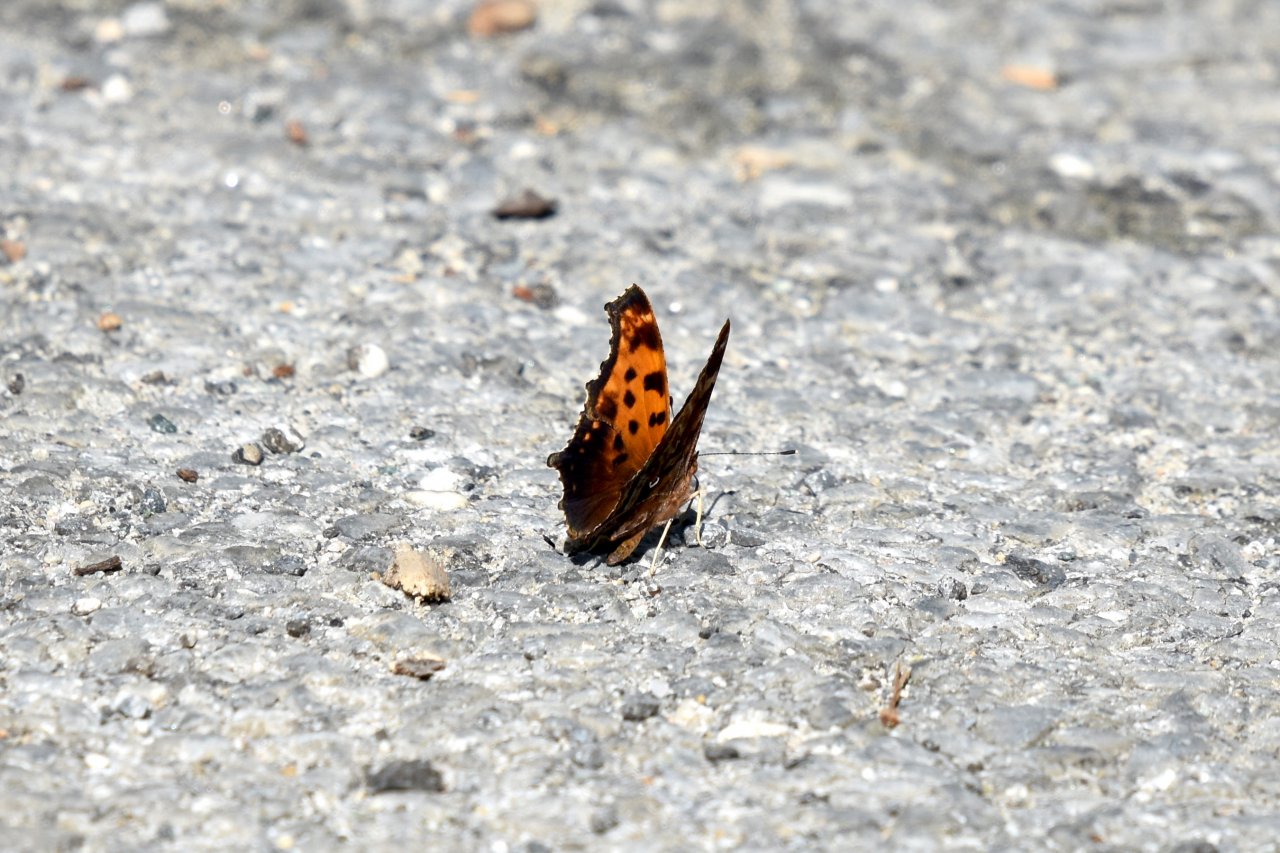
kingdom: Animalia
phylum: Arthropoda
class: Insecta
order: Lepidoptera
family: Nymphalidae
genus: Polygonia
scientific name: Polygonia comma
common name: Eastern Comma
